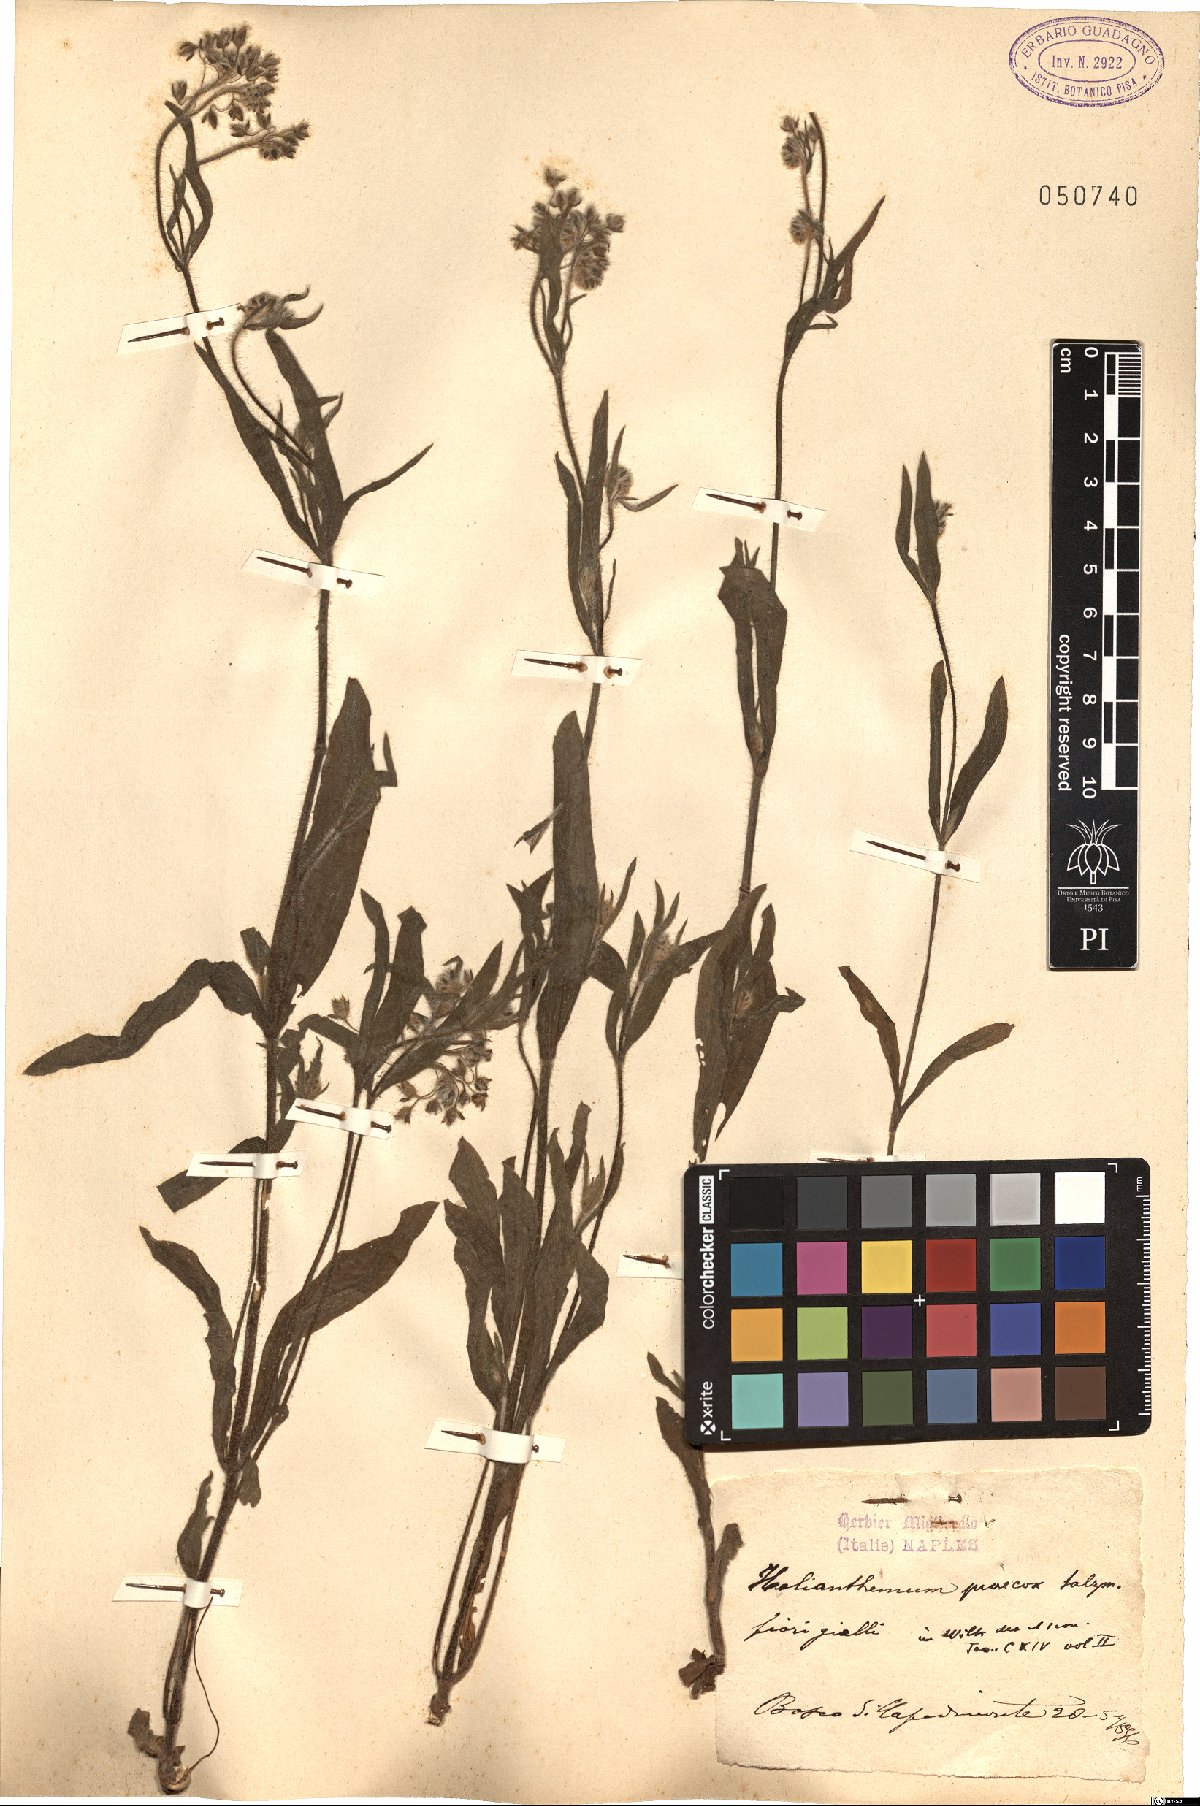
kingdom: Plantae
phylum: Tracheophyta
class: Magnoliopsida
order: Malvales
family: Cistaceae
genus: Tuberaria
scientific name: Tuberaria praecox
